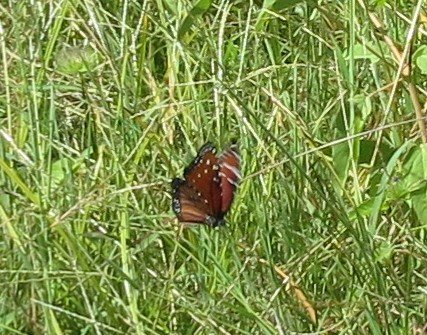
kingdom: Animalia
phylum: Arthropoda
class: Insecta
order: Lepidoptera
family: Nymphalidae
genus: Danaus
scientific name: Danaus gilippus
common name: Queen
